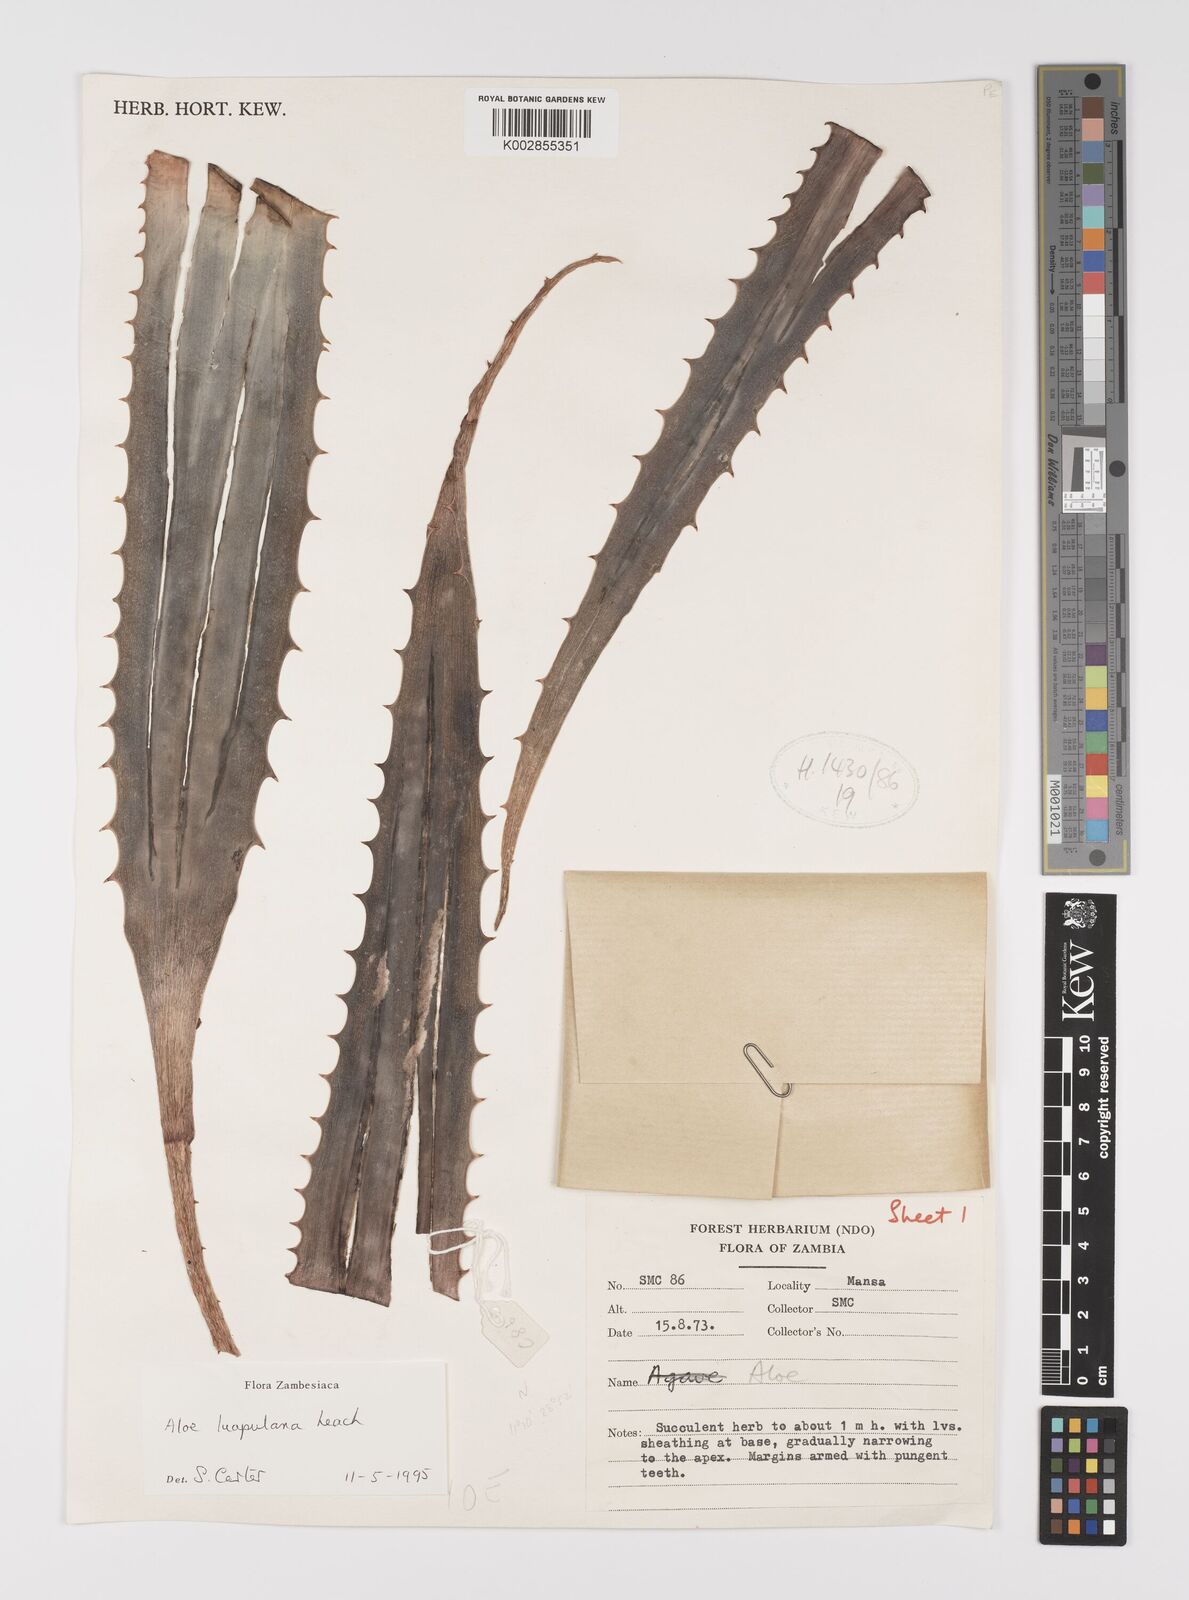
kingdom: Plantae
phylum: Tracheophyta
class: Liliopsida
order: Asparagales
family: Asphodelaceae
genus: Aloe
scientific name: Aloe luapulana
